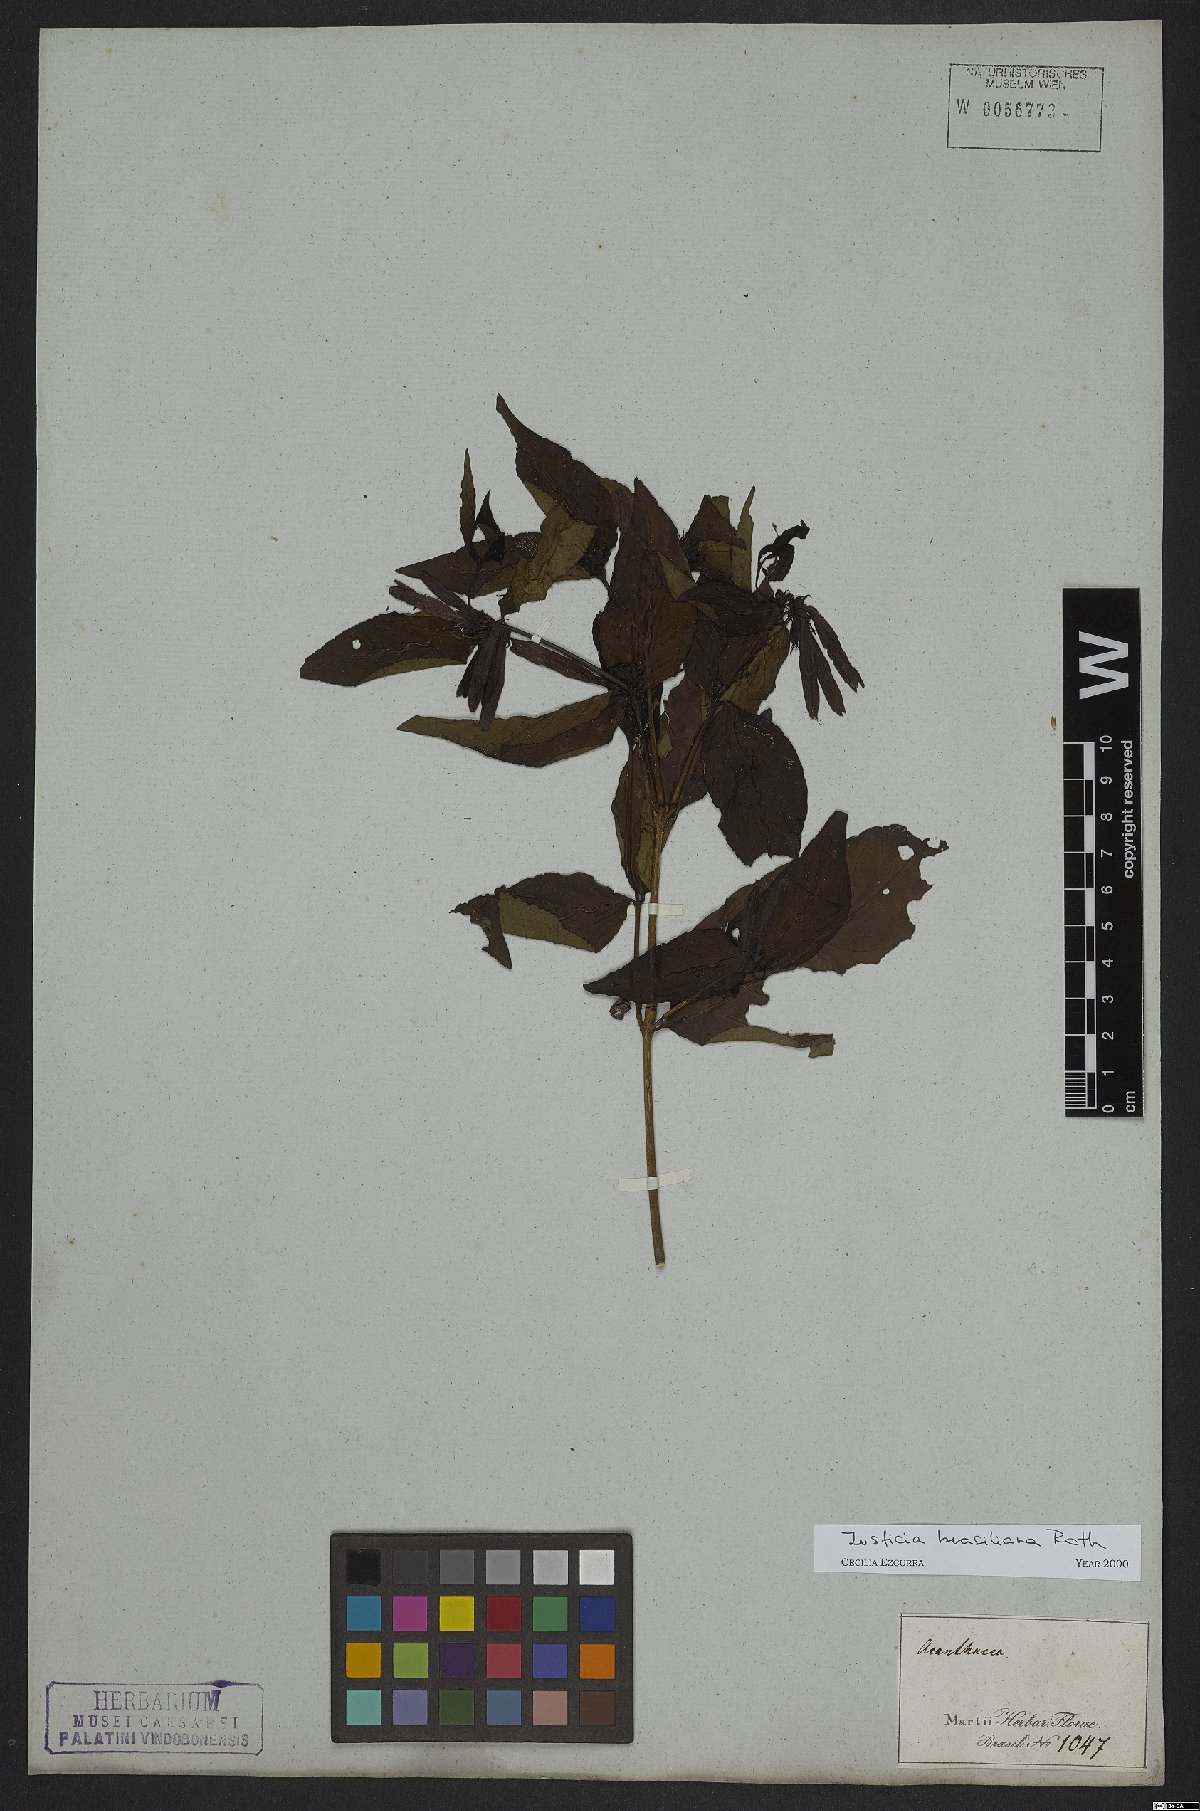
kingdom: Plantae
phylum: Tracheophyta
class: Magnoliopsida
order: Lamiales
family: Acanthaceae
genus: Justicia
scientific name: Justicia brasiliana
